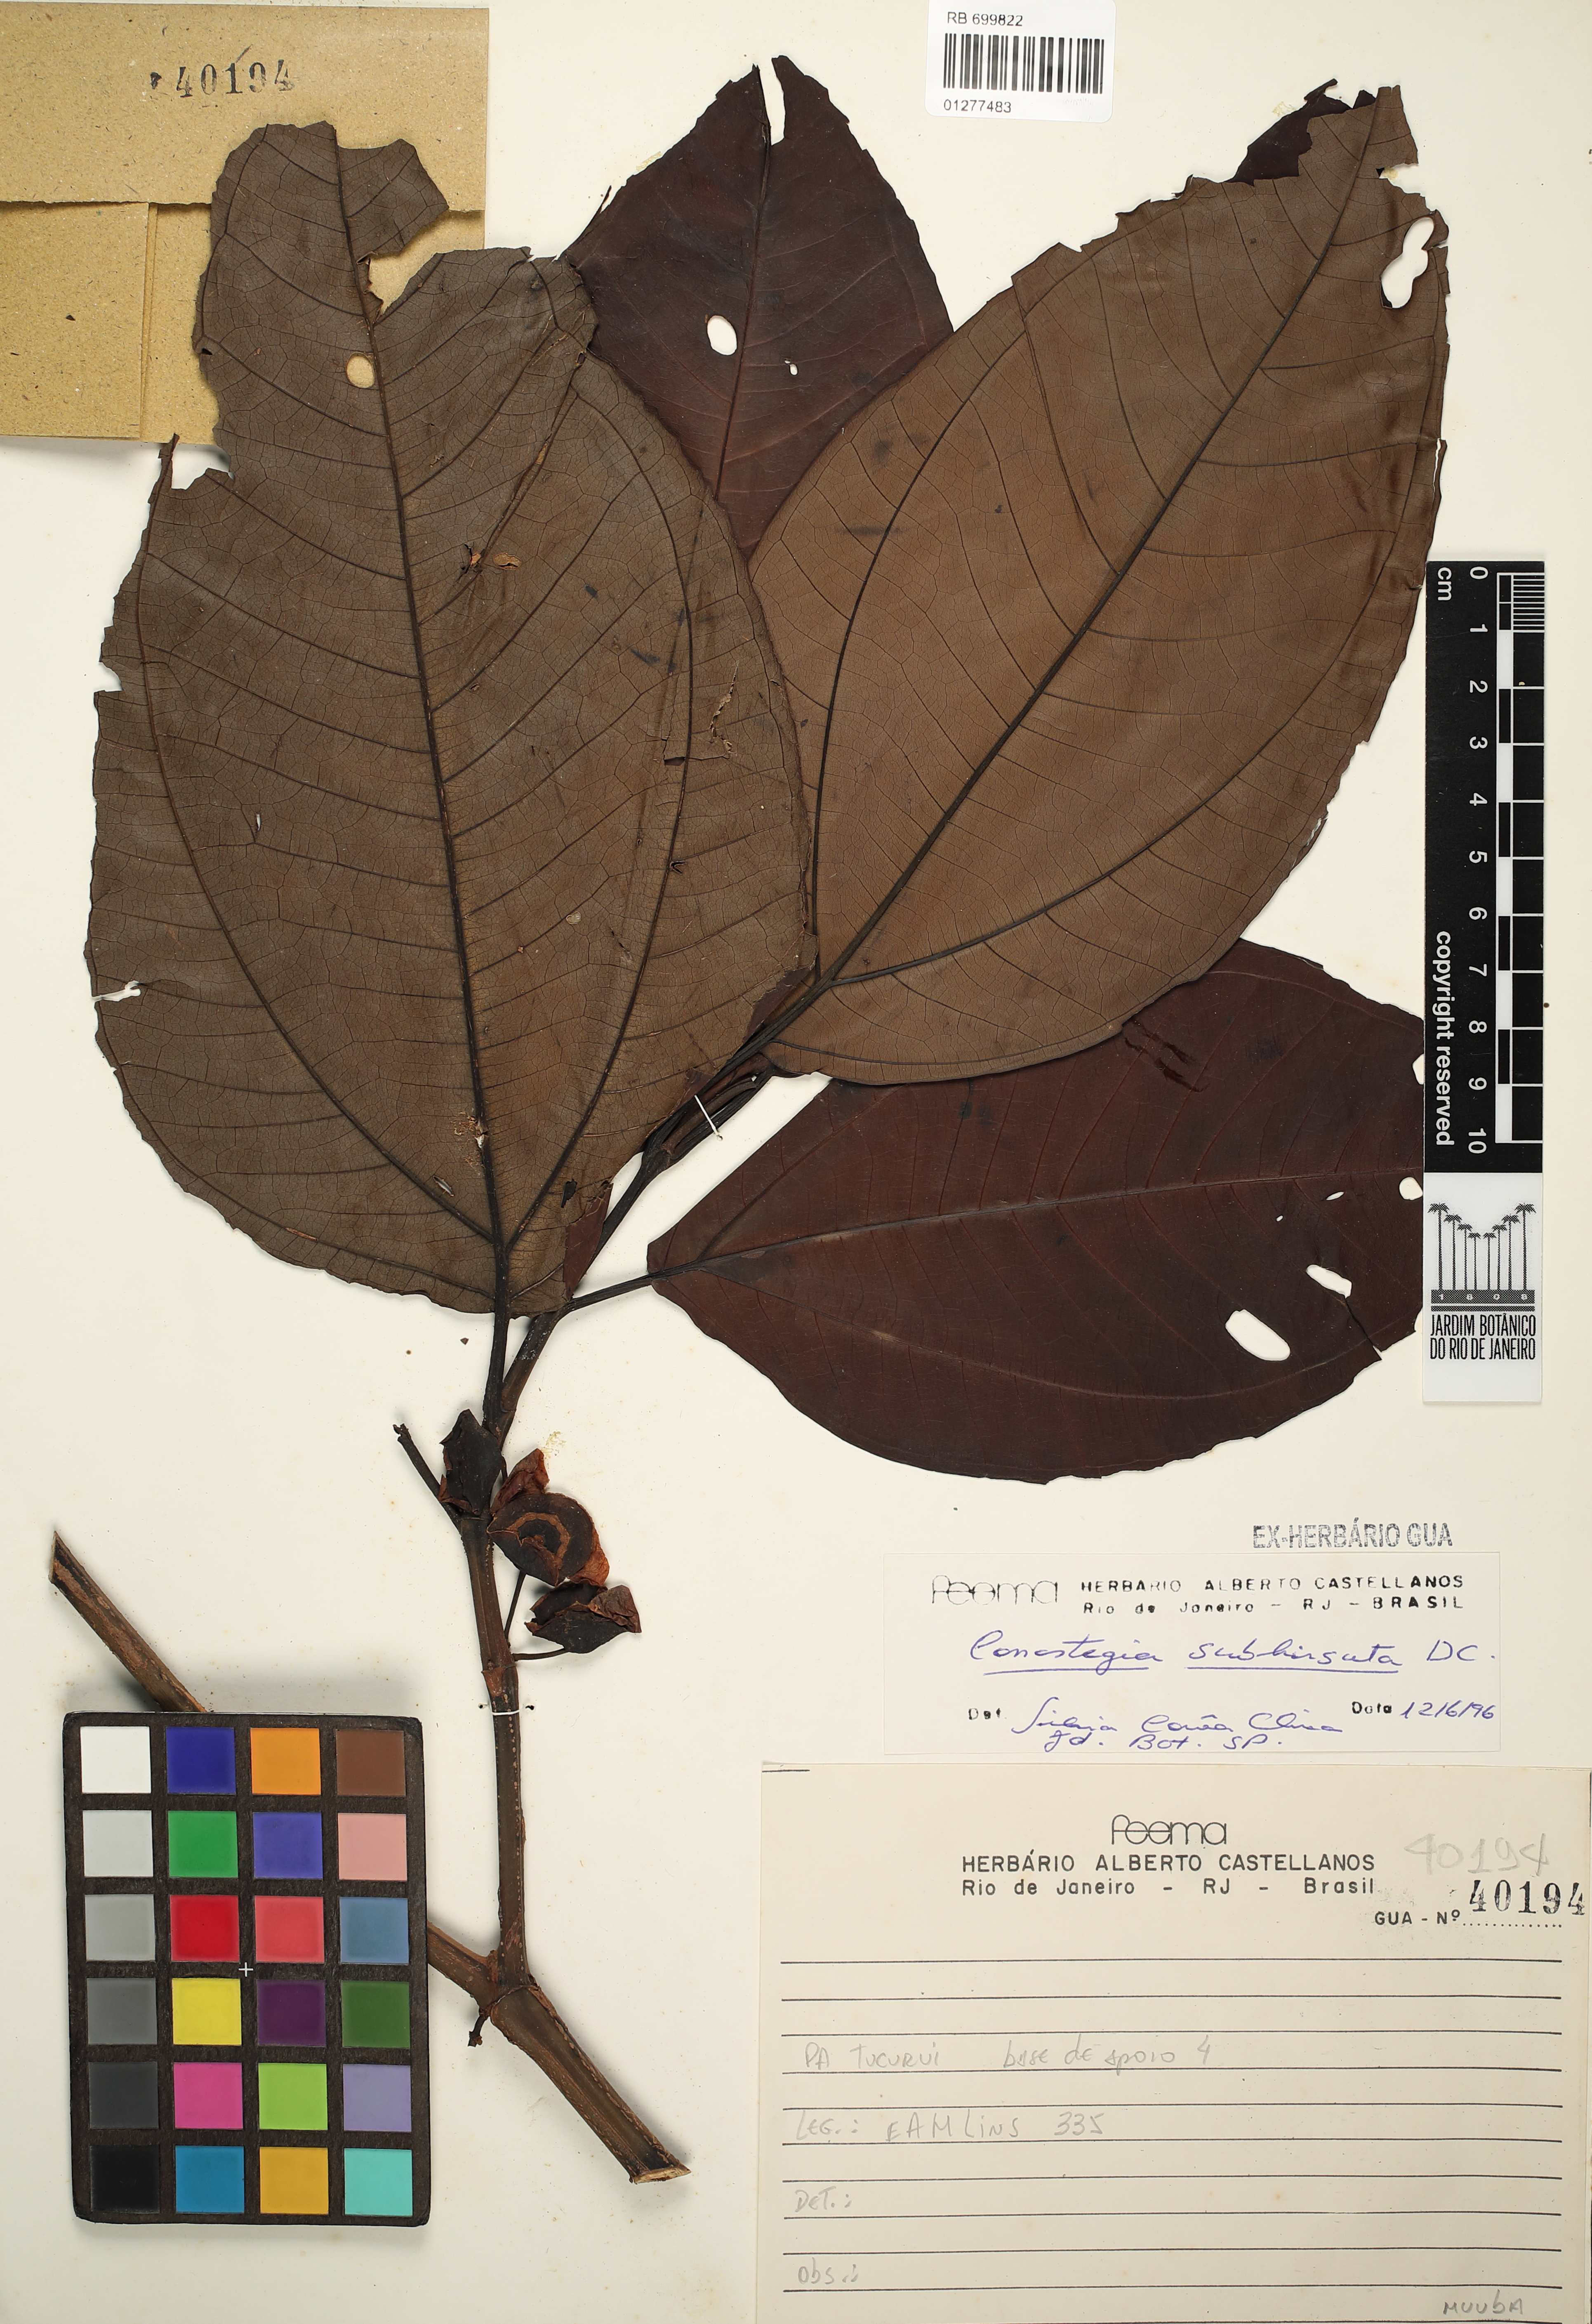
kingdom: Plantae
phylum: Tracheophyta
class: Magnoliopsida
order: Myrtales
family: Melastomataceae
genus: Miconia
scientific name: Miconia subhirsuta
